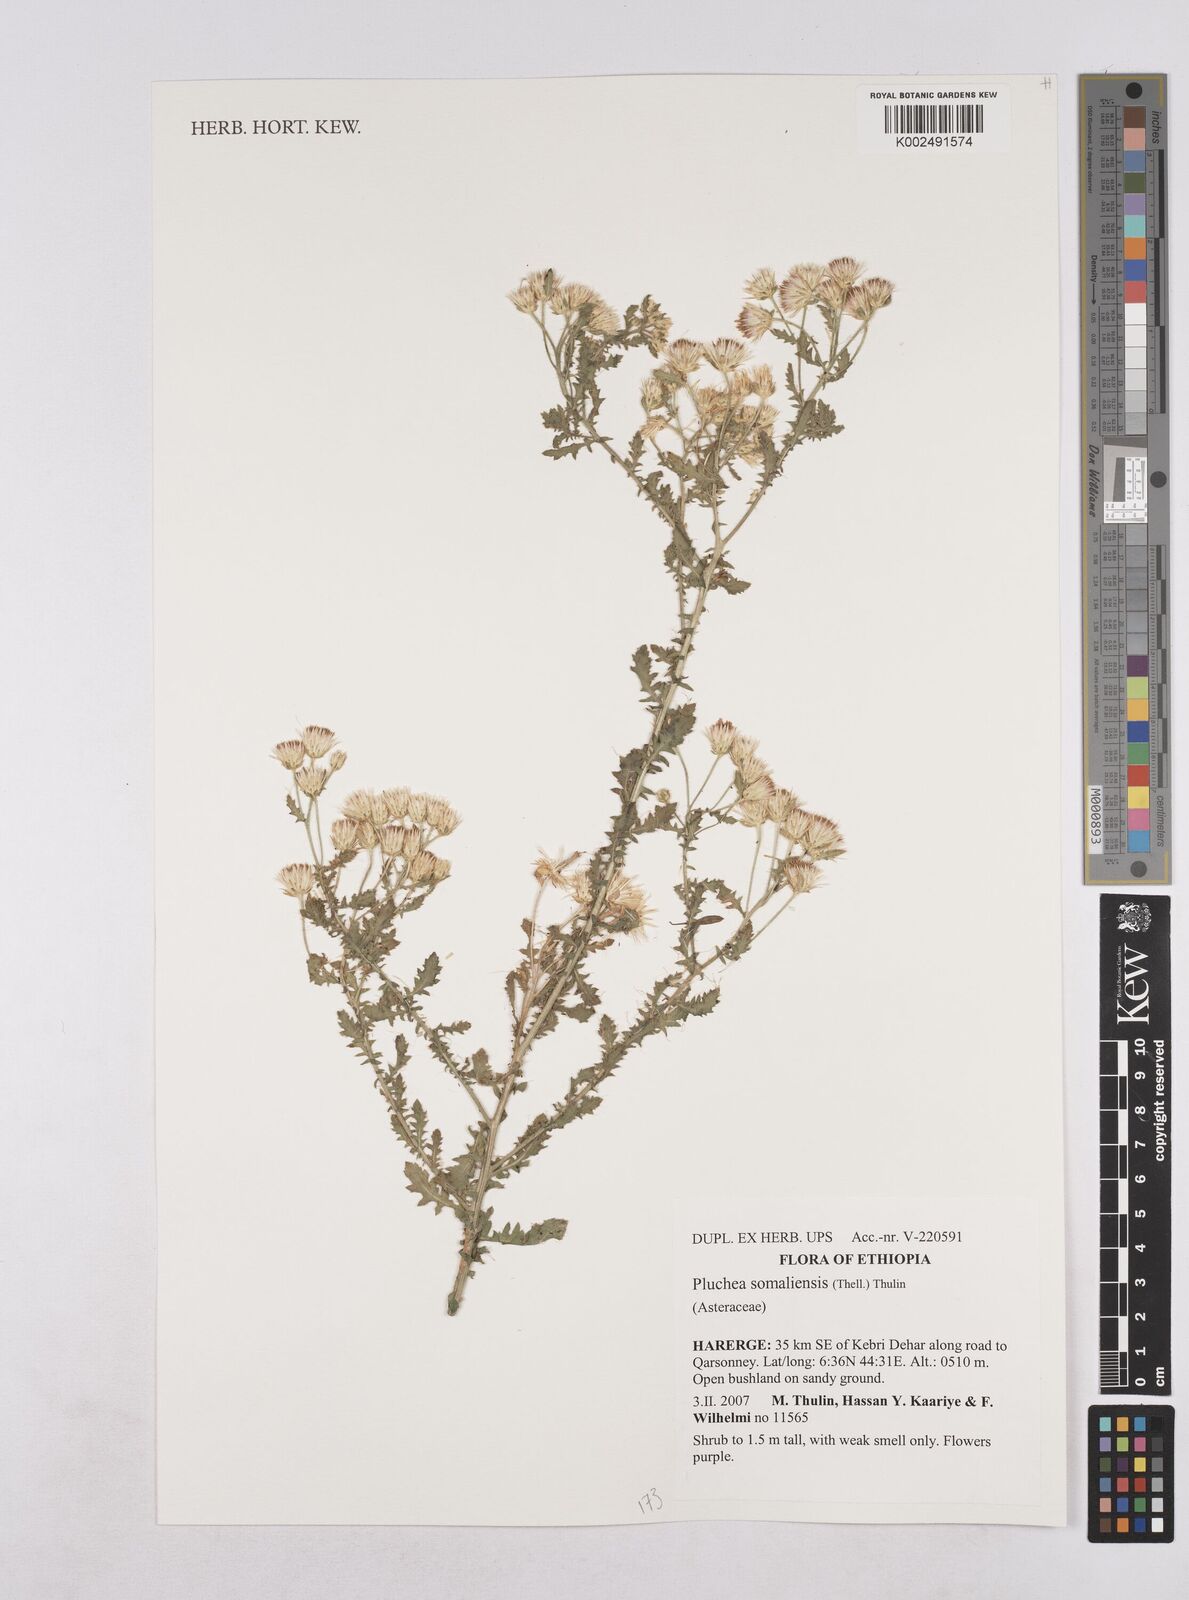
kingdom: Plantae
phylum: Tracheophyta
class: Magnoliopsida
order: Asterales
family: Asteraceae
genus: Pluchea
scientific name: Pluchea somaliensis
